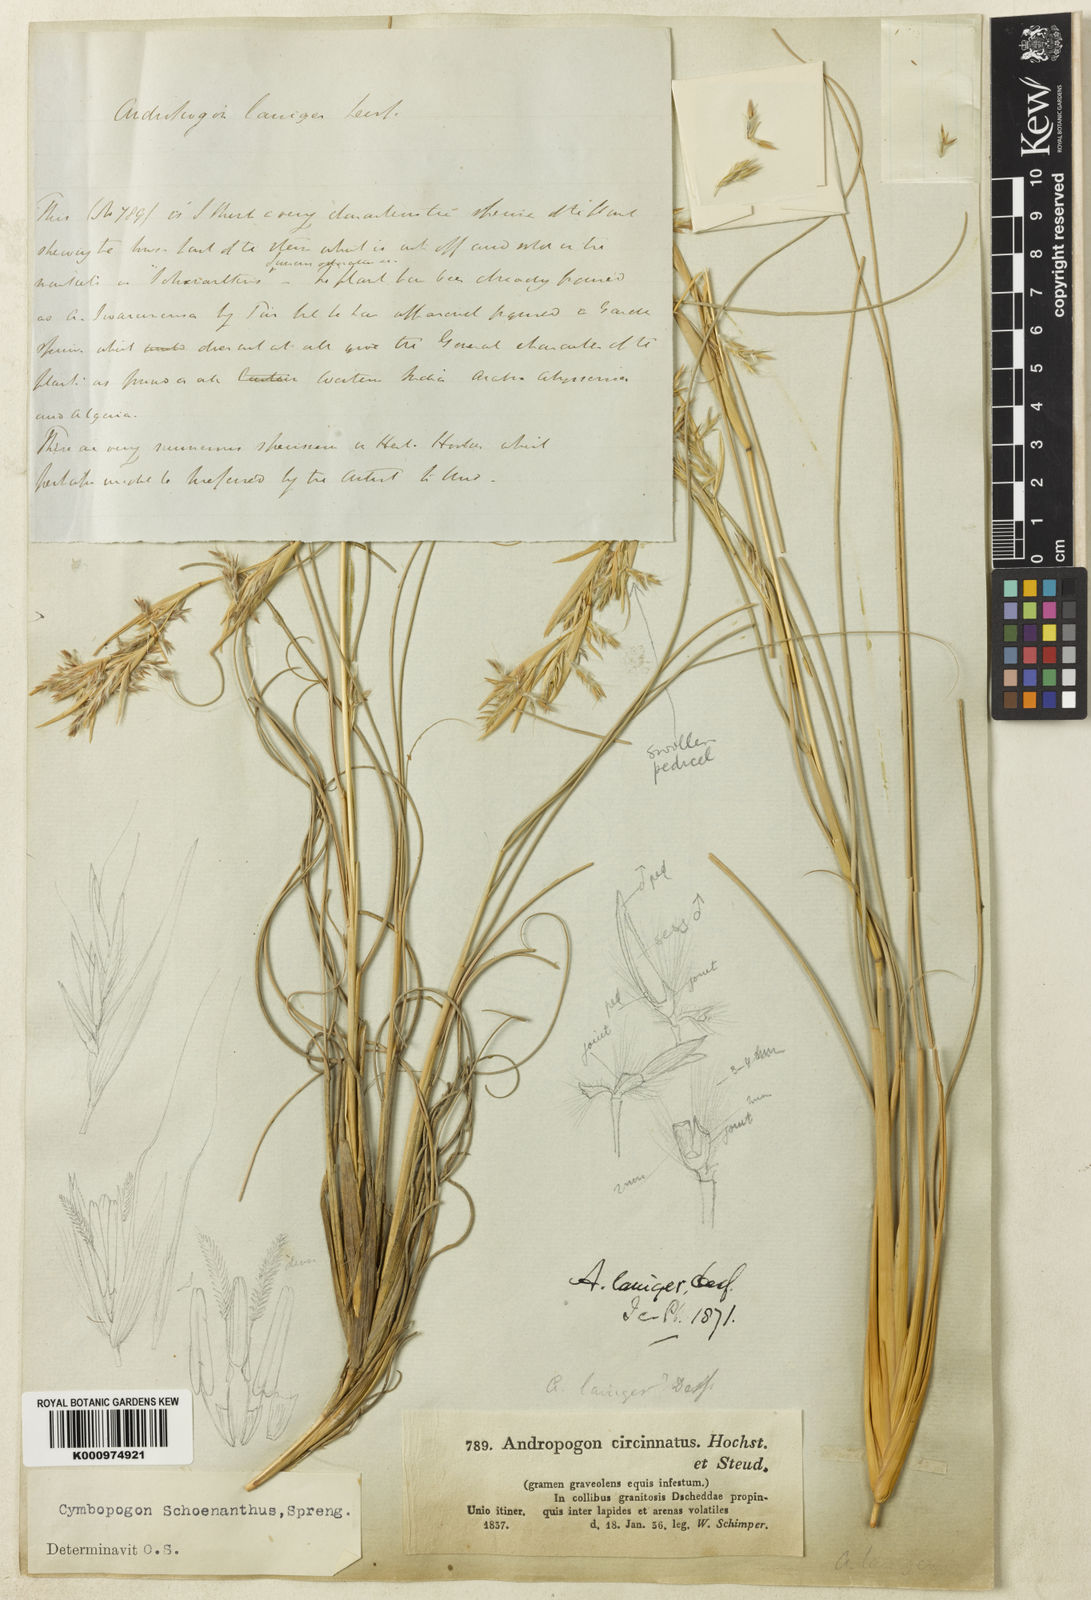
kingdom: Plantae
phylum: Tracheophyta
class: Liliopsida
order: Poales
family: Poaceae
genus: Cymbopogon
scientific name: Cymbopogon schoenanthus
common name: Geranium grass
